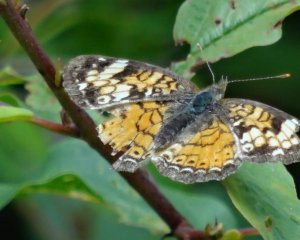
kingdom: Animalia
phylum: Arthropoda
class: Insecta
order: Lepidoptera
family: Nymphalidae
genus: Phyciodes
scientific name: Phyciodes tharos
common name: Northern Crescent
